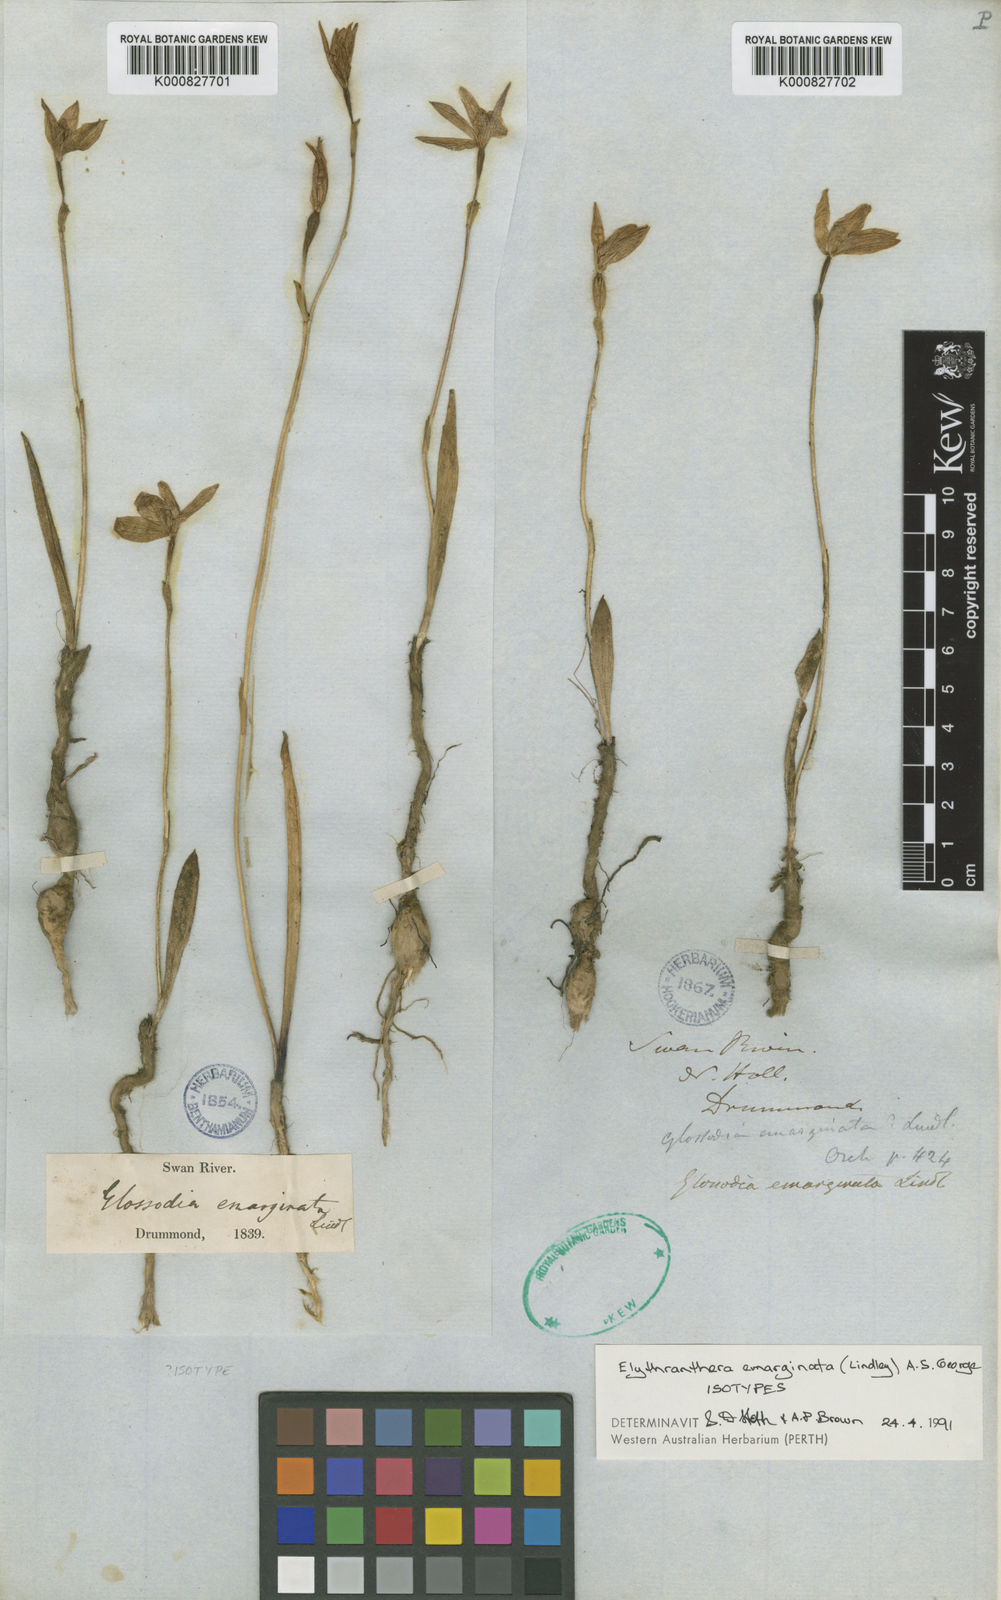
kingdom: Plantae
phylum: Tracheophyta
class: Liliopsida
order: Asparagales
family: Orchidaceae
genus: Caladenia
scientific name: Caladenia emarginata
